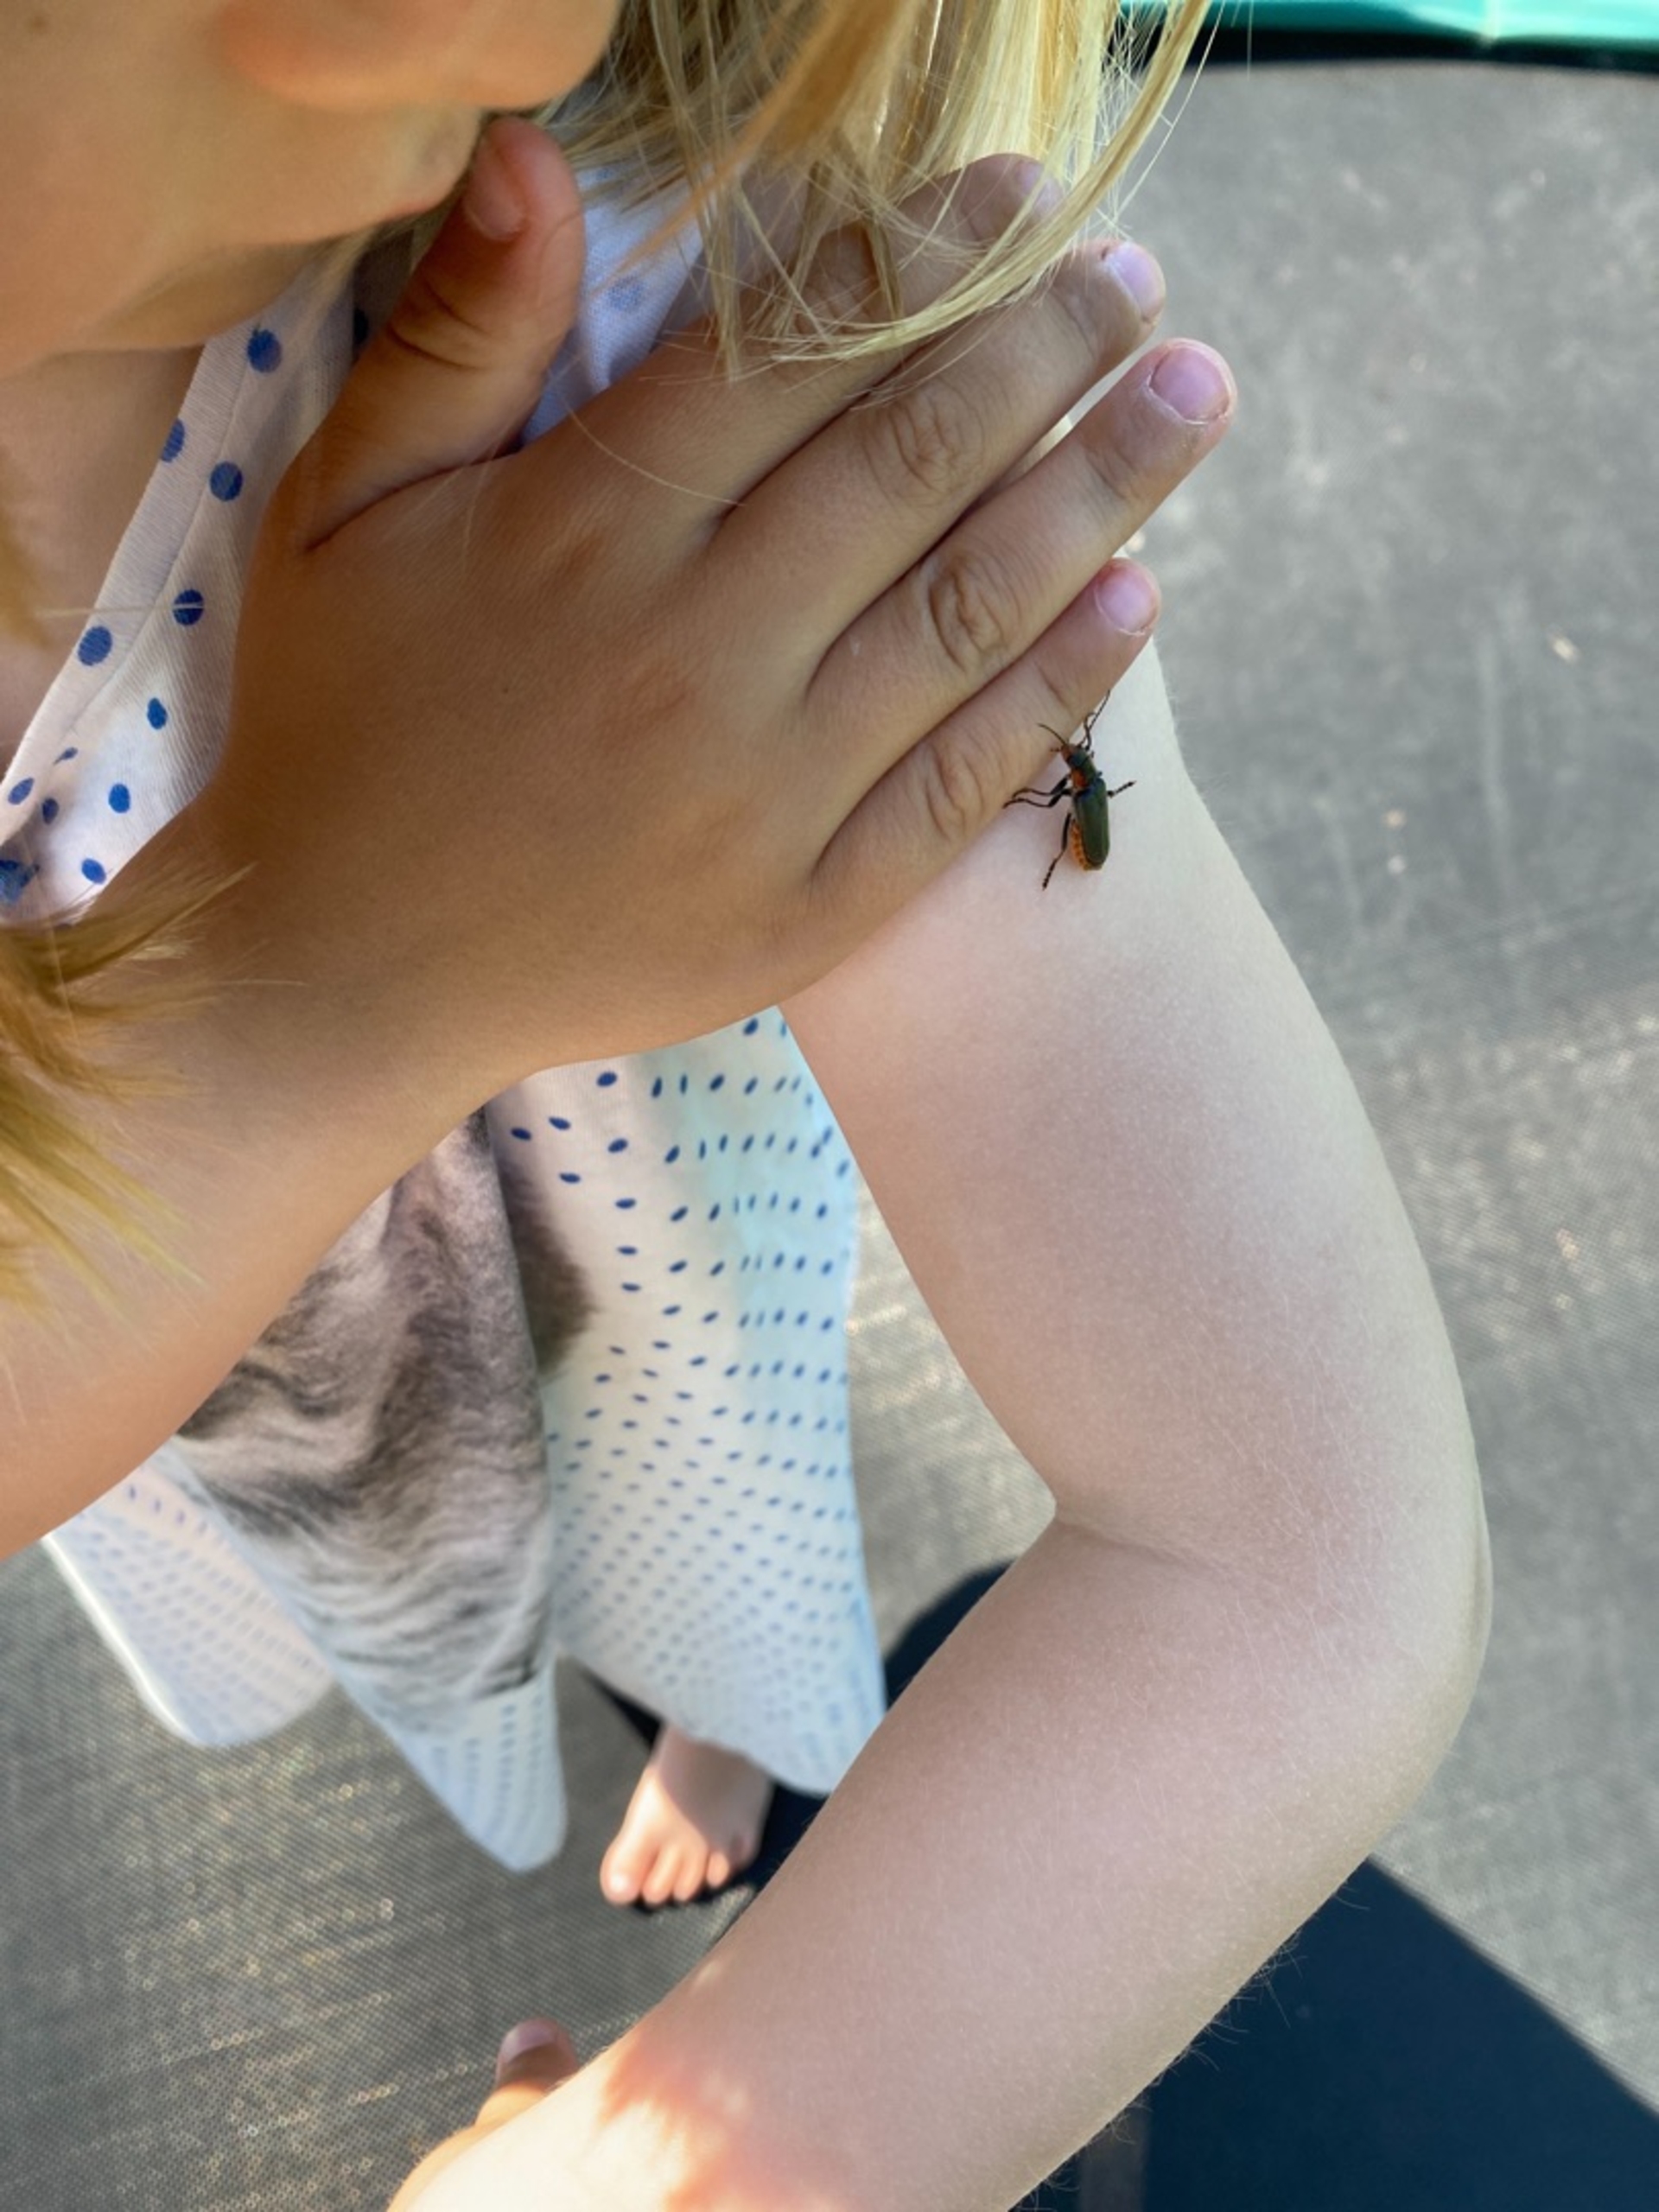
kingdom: Animalia
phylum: Arthropoda
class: Insecta
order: Coleoptera
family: Cantharidae
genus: Cantharis
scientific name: Cantharis fusca
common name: Stor blødvinge
